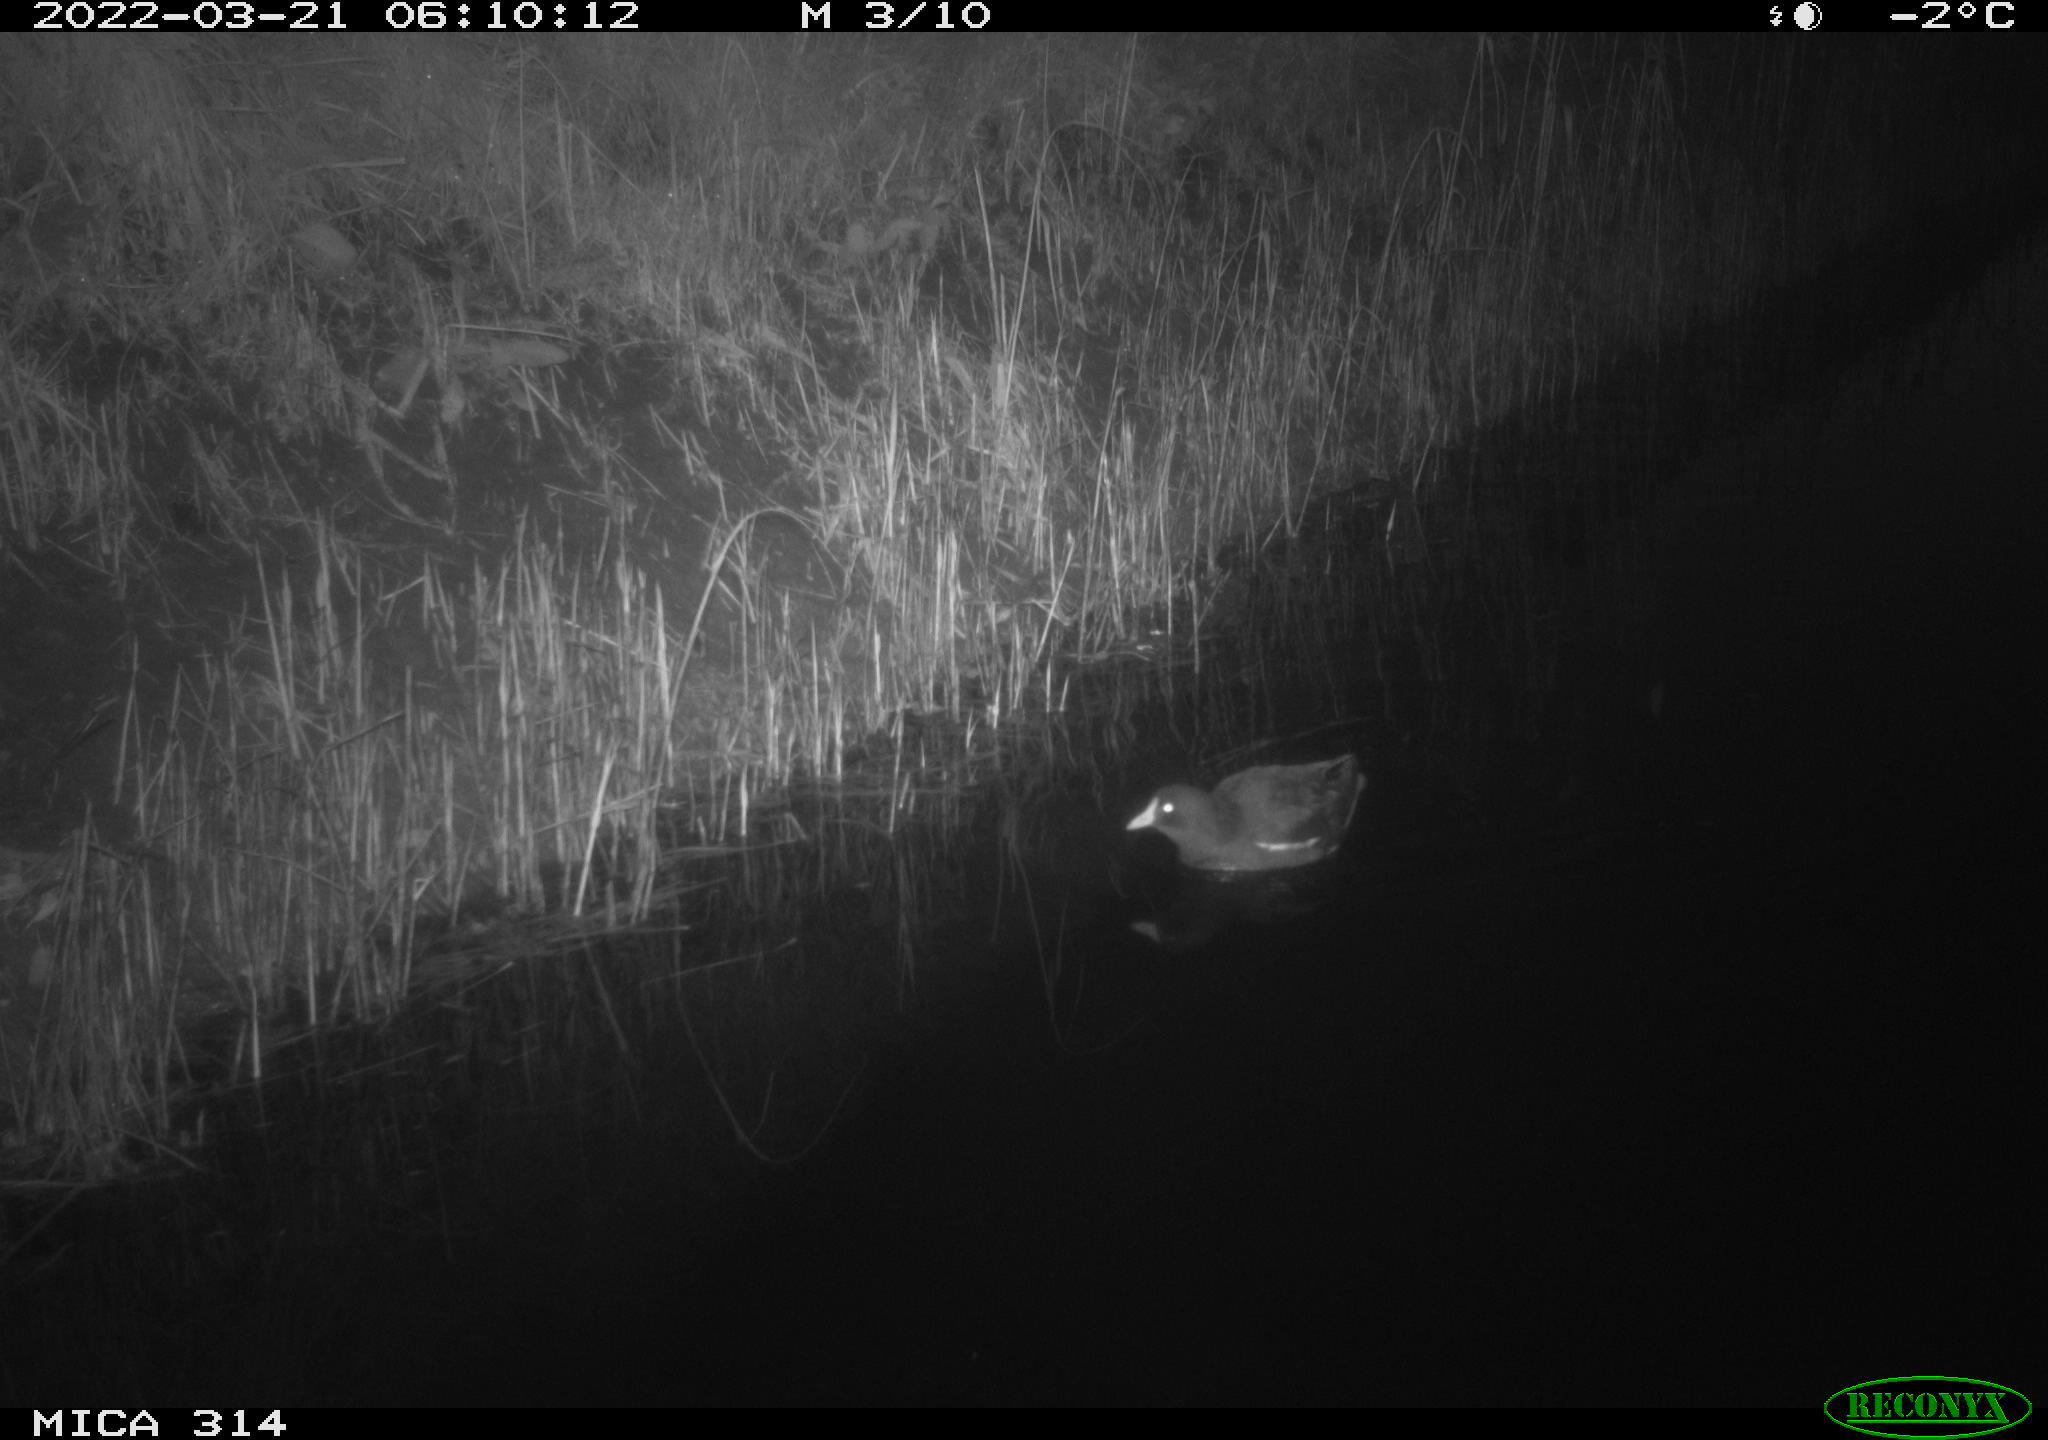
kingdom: Animalia
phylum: Chordata
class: Aves
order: Gruiformes
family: Rallidae
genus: Gallinula
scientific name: Gallinula chloropus
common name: Common moorhen
